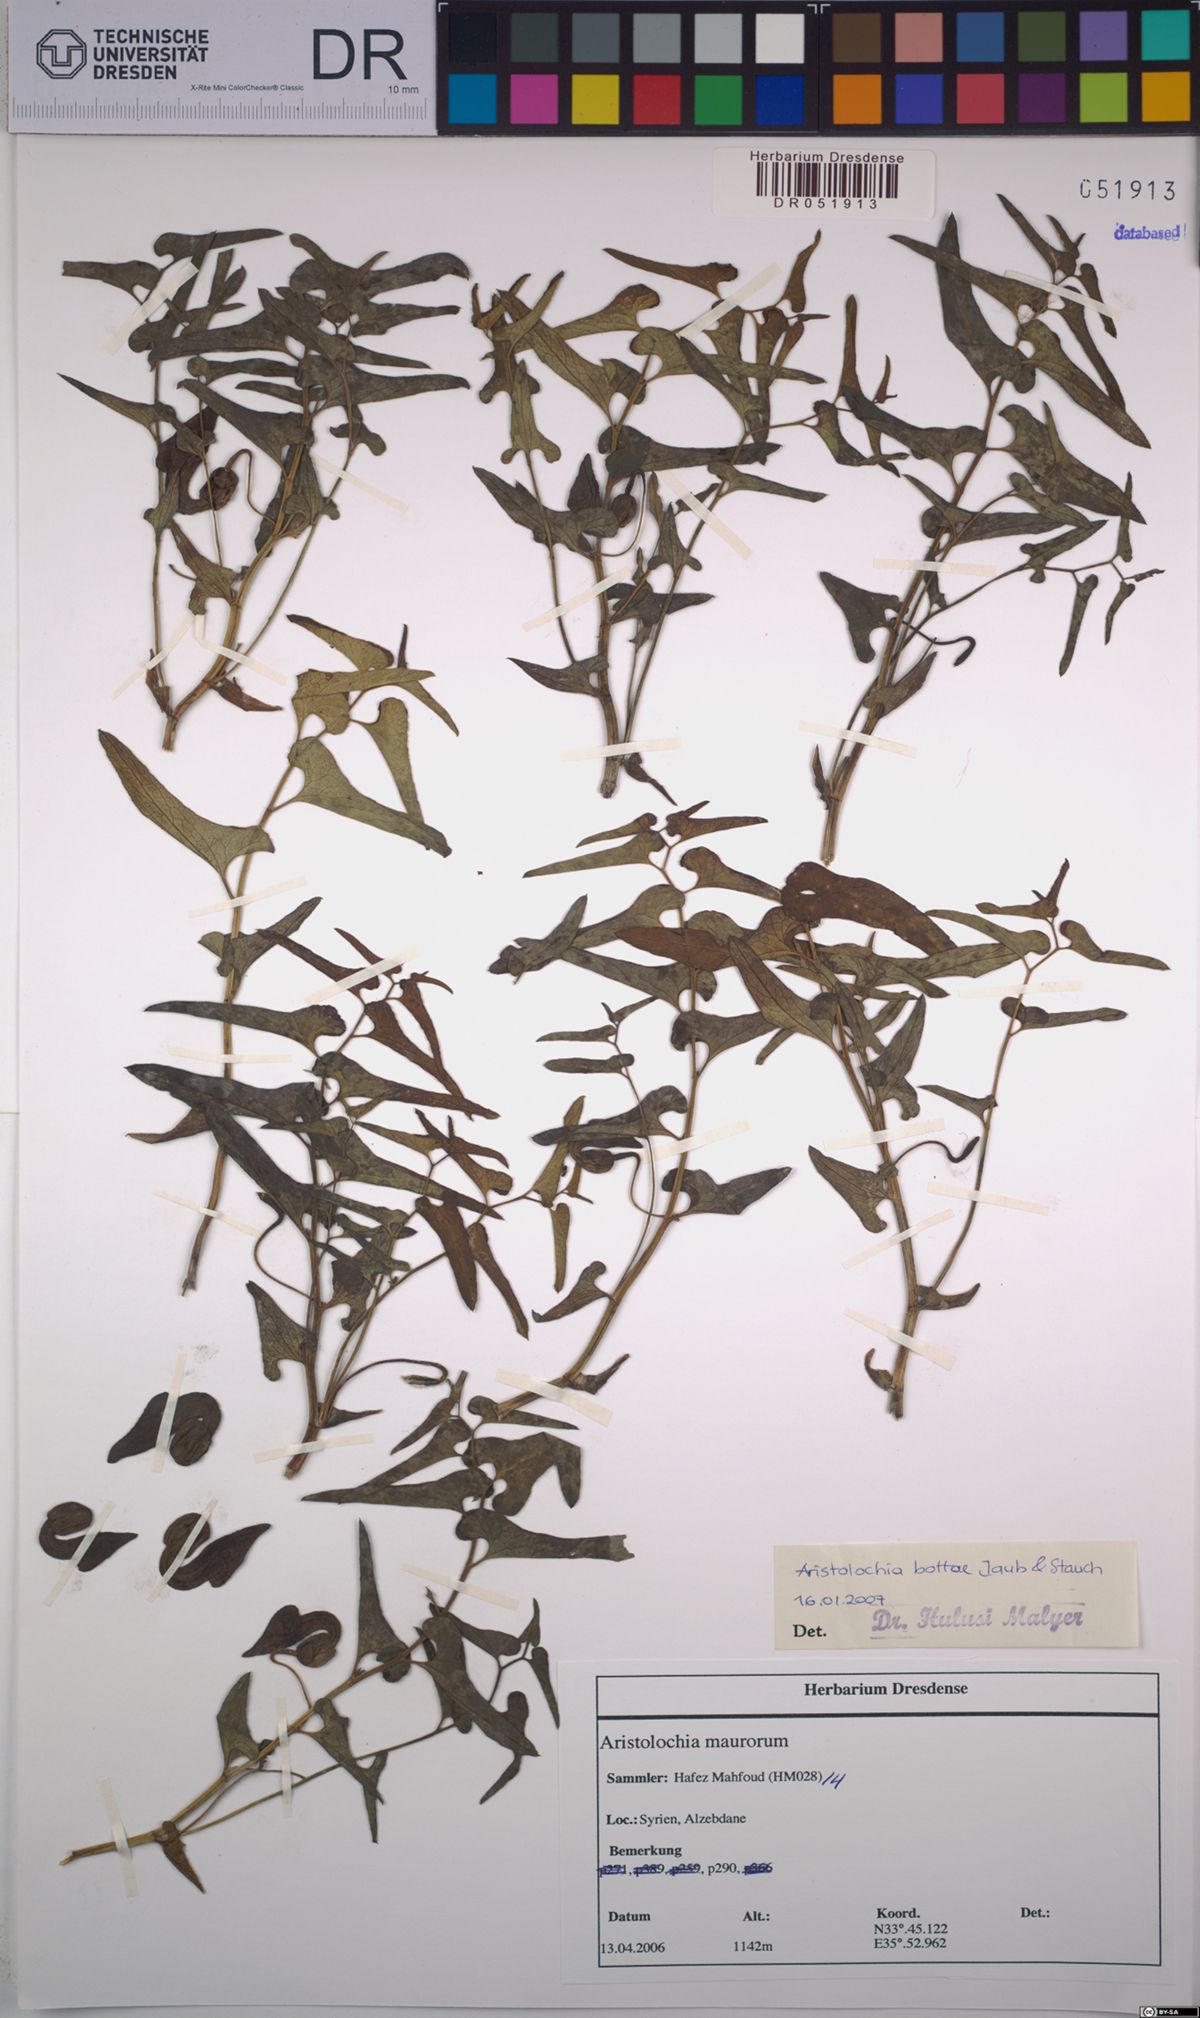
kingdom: Plantae
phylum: Tracheophyta
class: Magnoliopsida
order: Piperales
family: Aristolochiaceae
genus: Aristolochia
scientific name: Aristolochia bottae
